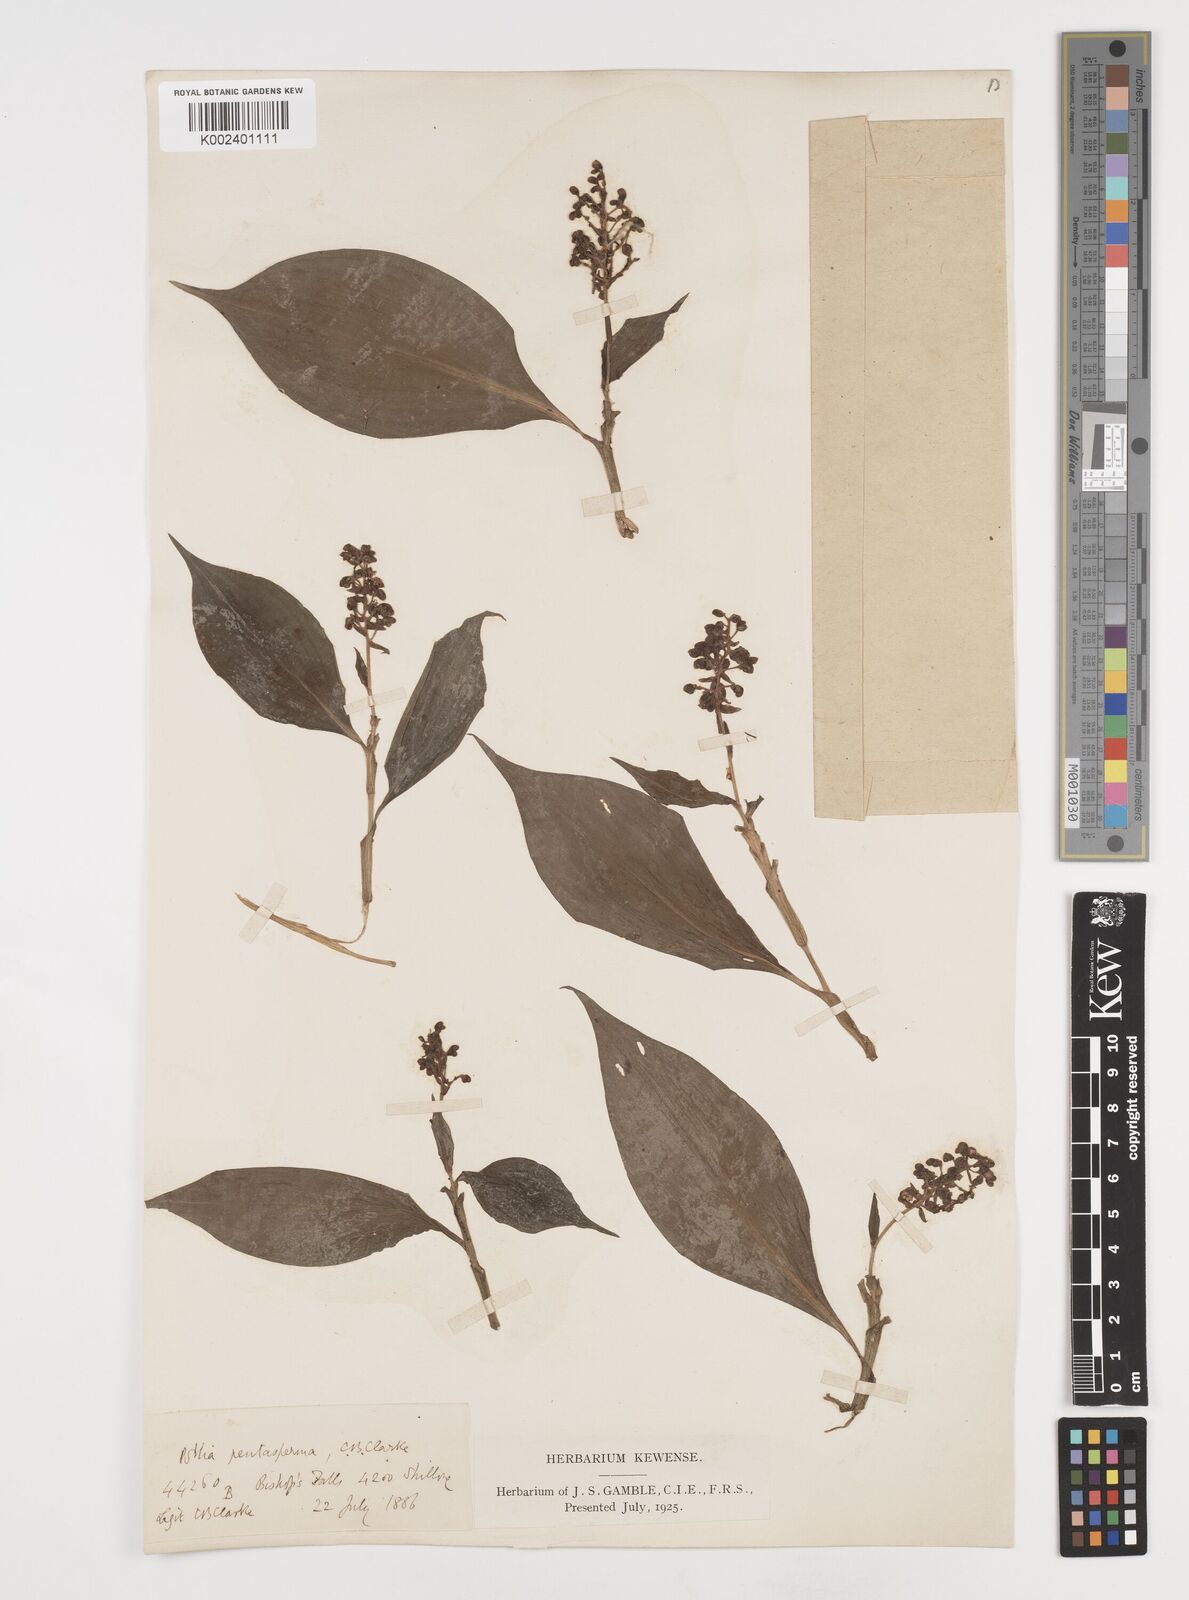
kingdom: Plantae
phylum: Tracheophyta
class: Liliopsida
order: Commelinales
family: Commelinaceae
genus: Pollia
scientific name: Pollia pentasperma
